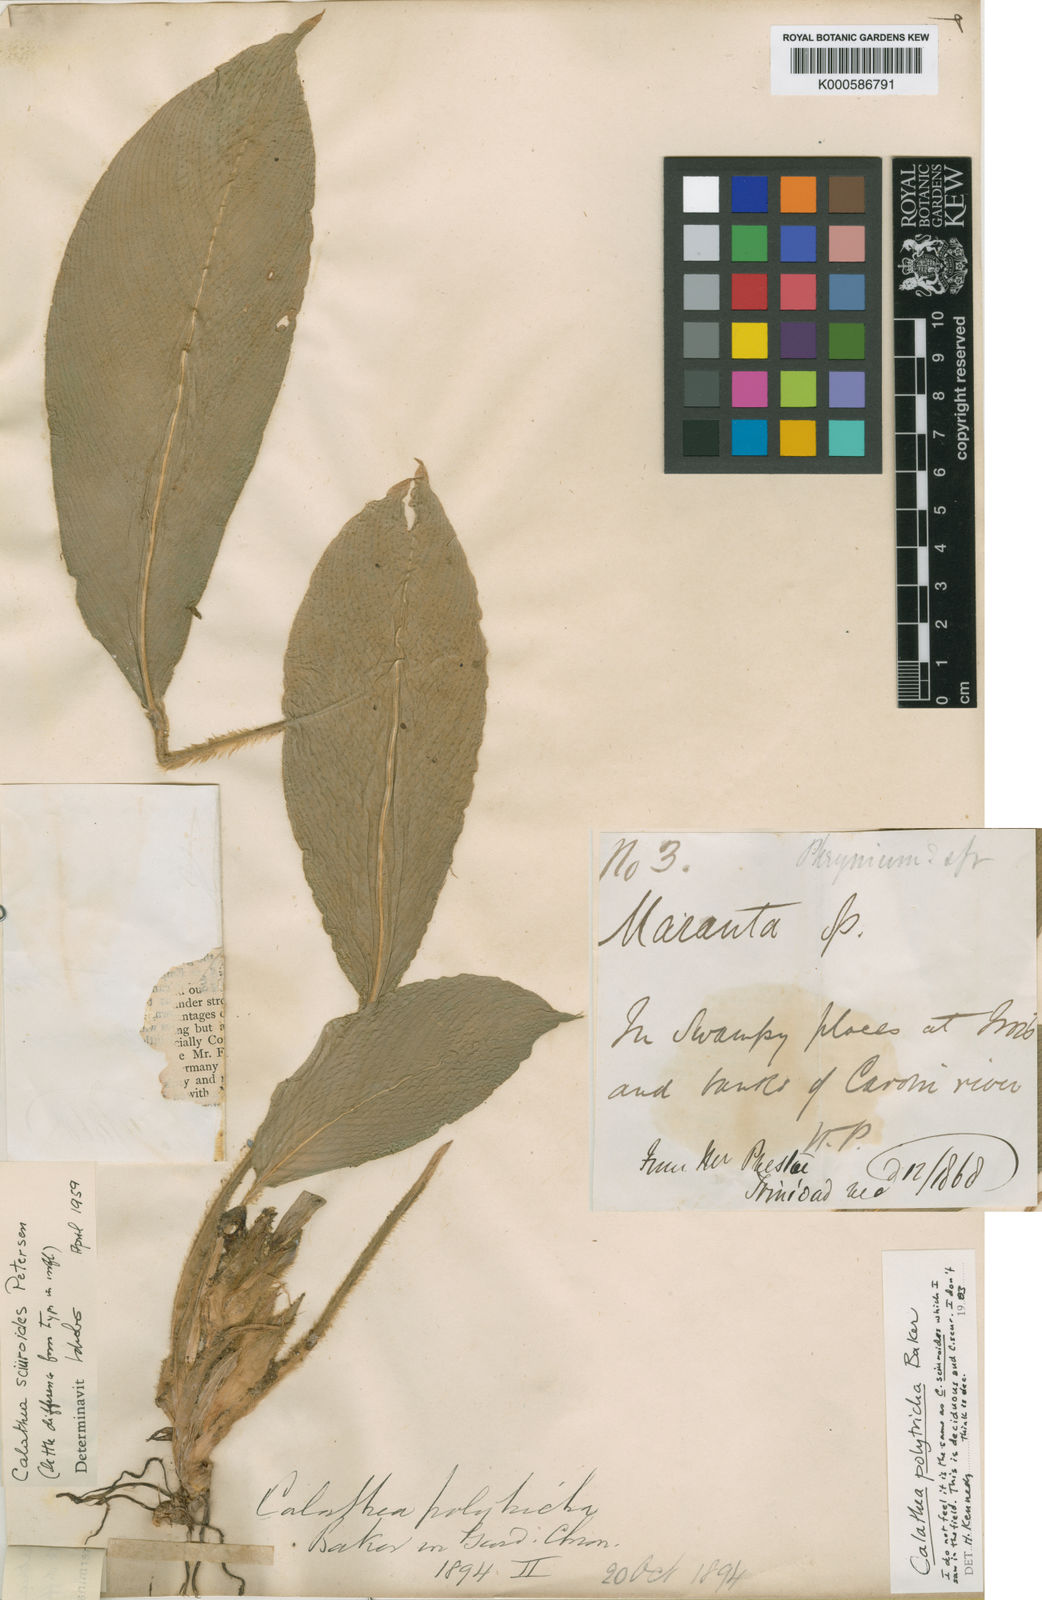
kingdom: Plantae
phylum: Tracheophyta
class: Liliopsida
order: Zingiberales
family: Marantaceae
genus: Goeppertia
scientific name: Goeppertia sciuroides
